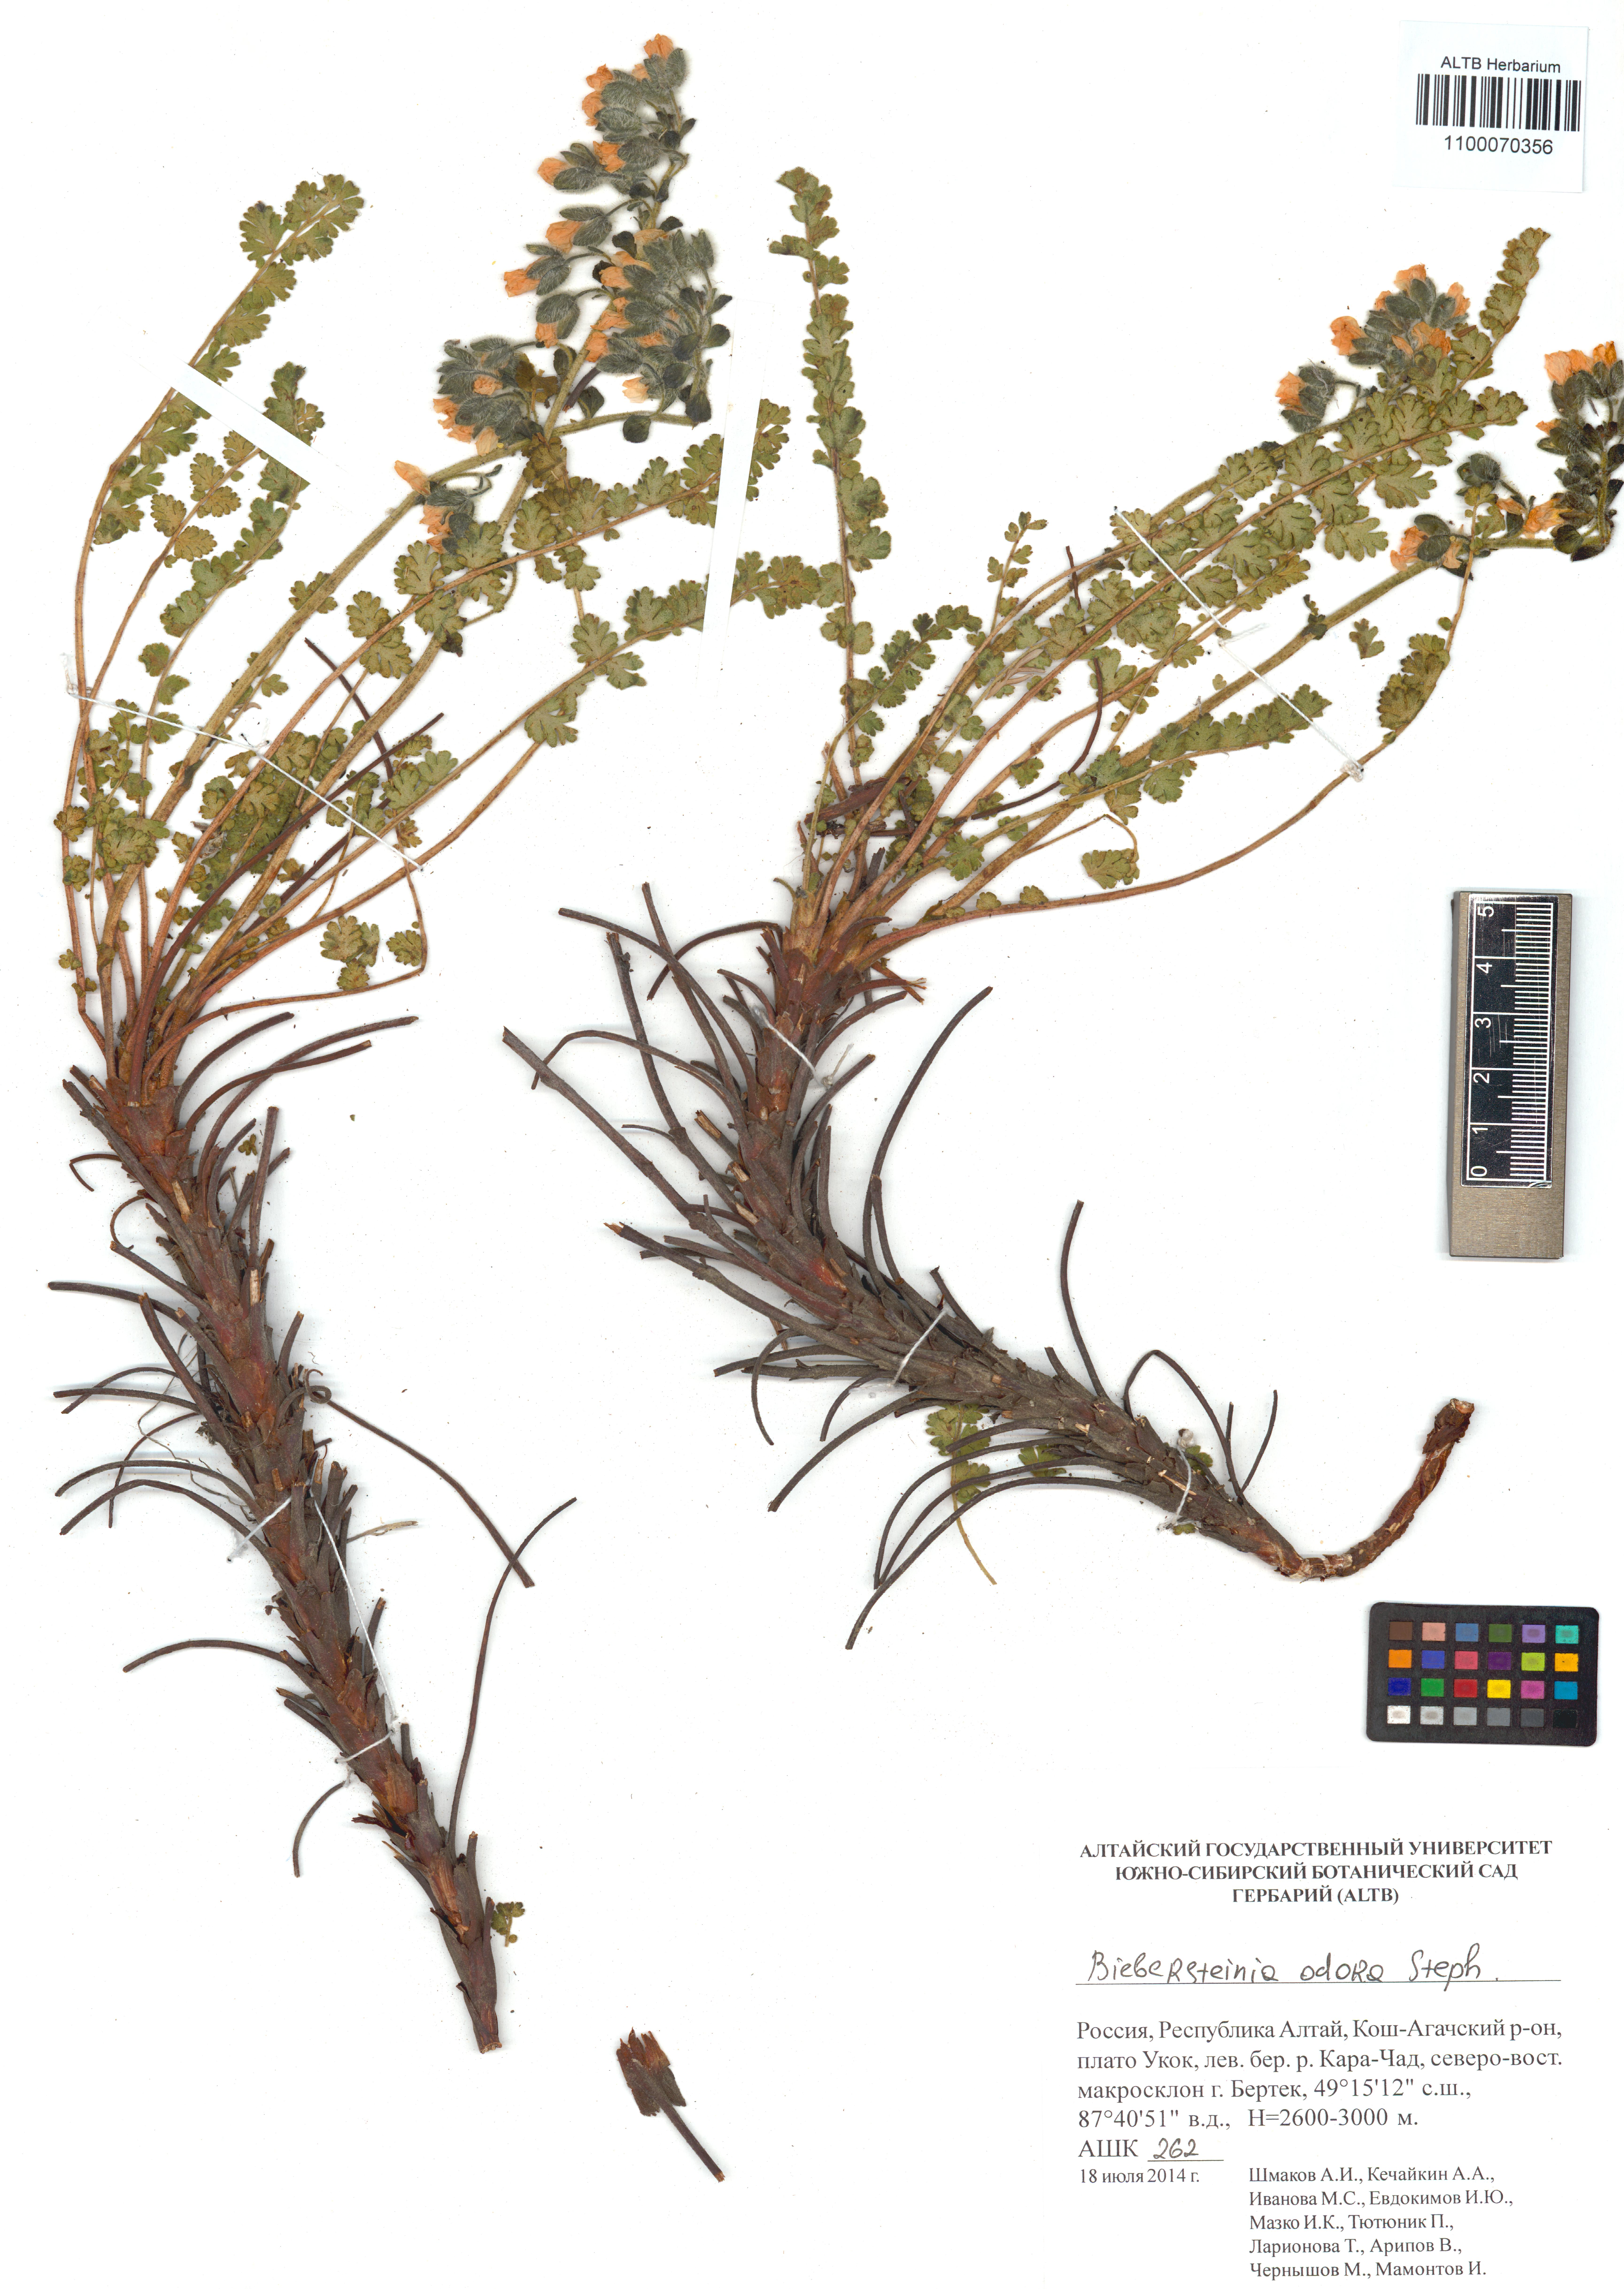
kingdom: Plantae
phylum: Tracheophyta
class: Magnoliopsida
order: Sapindales
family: Biebersteiniaceae
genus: Biebersteinia
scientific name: Biebersteinia odora
